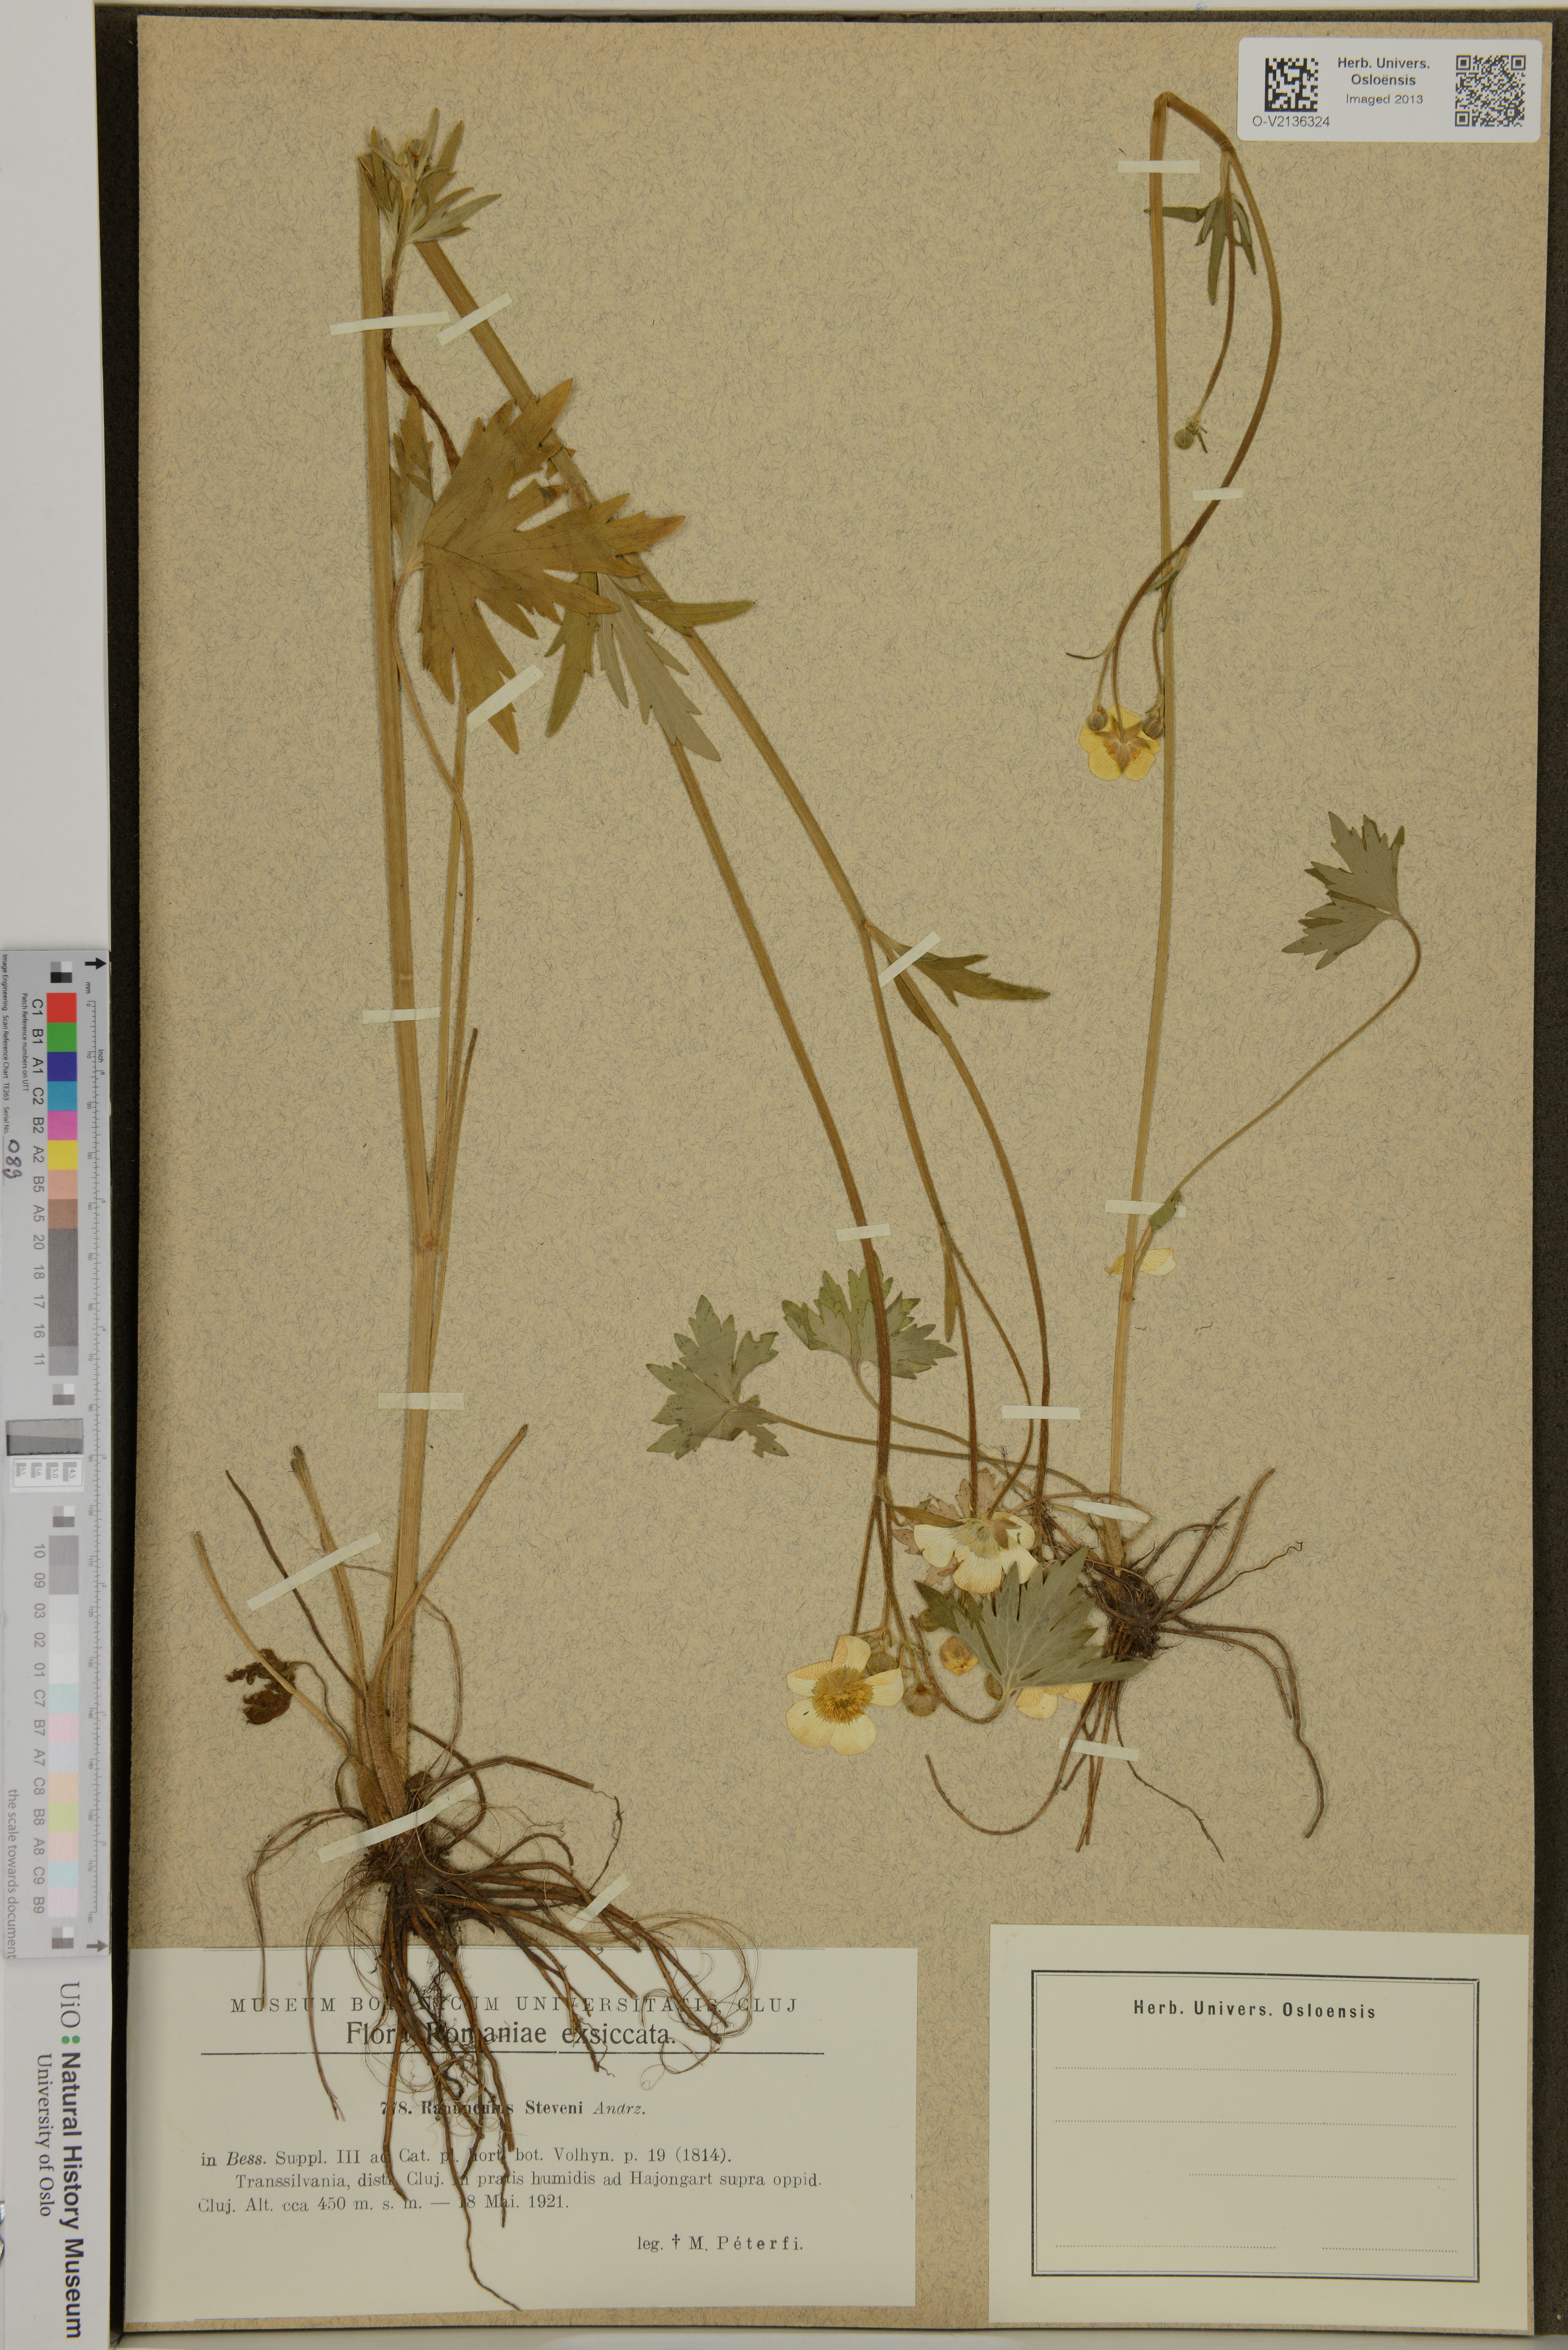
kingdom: Plantae
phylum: Tracheophyta
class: Magnoliopsida
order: Ranunculales
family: Ranunculaceae
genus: Ranunculus
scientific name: Ranunculus japonicus
